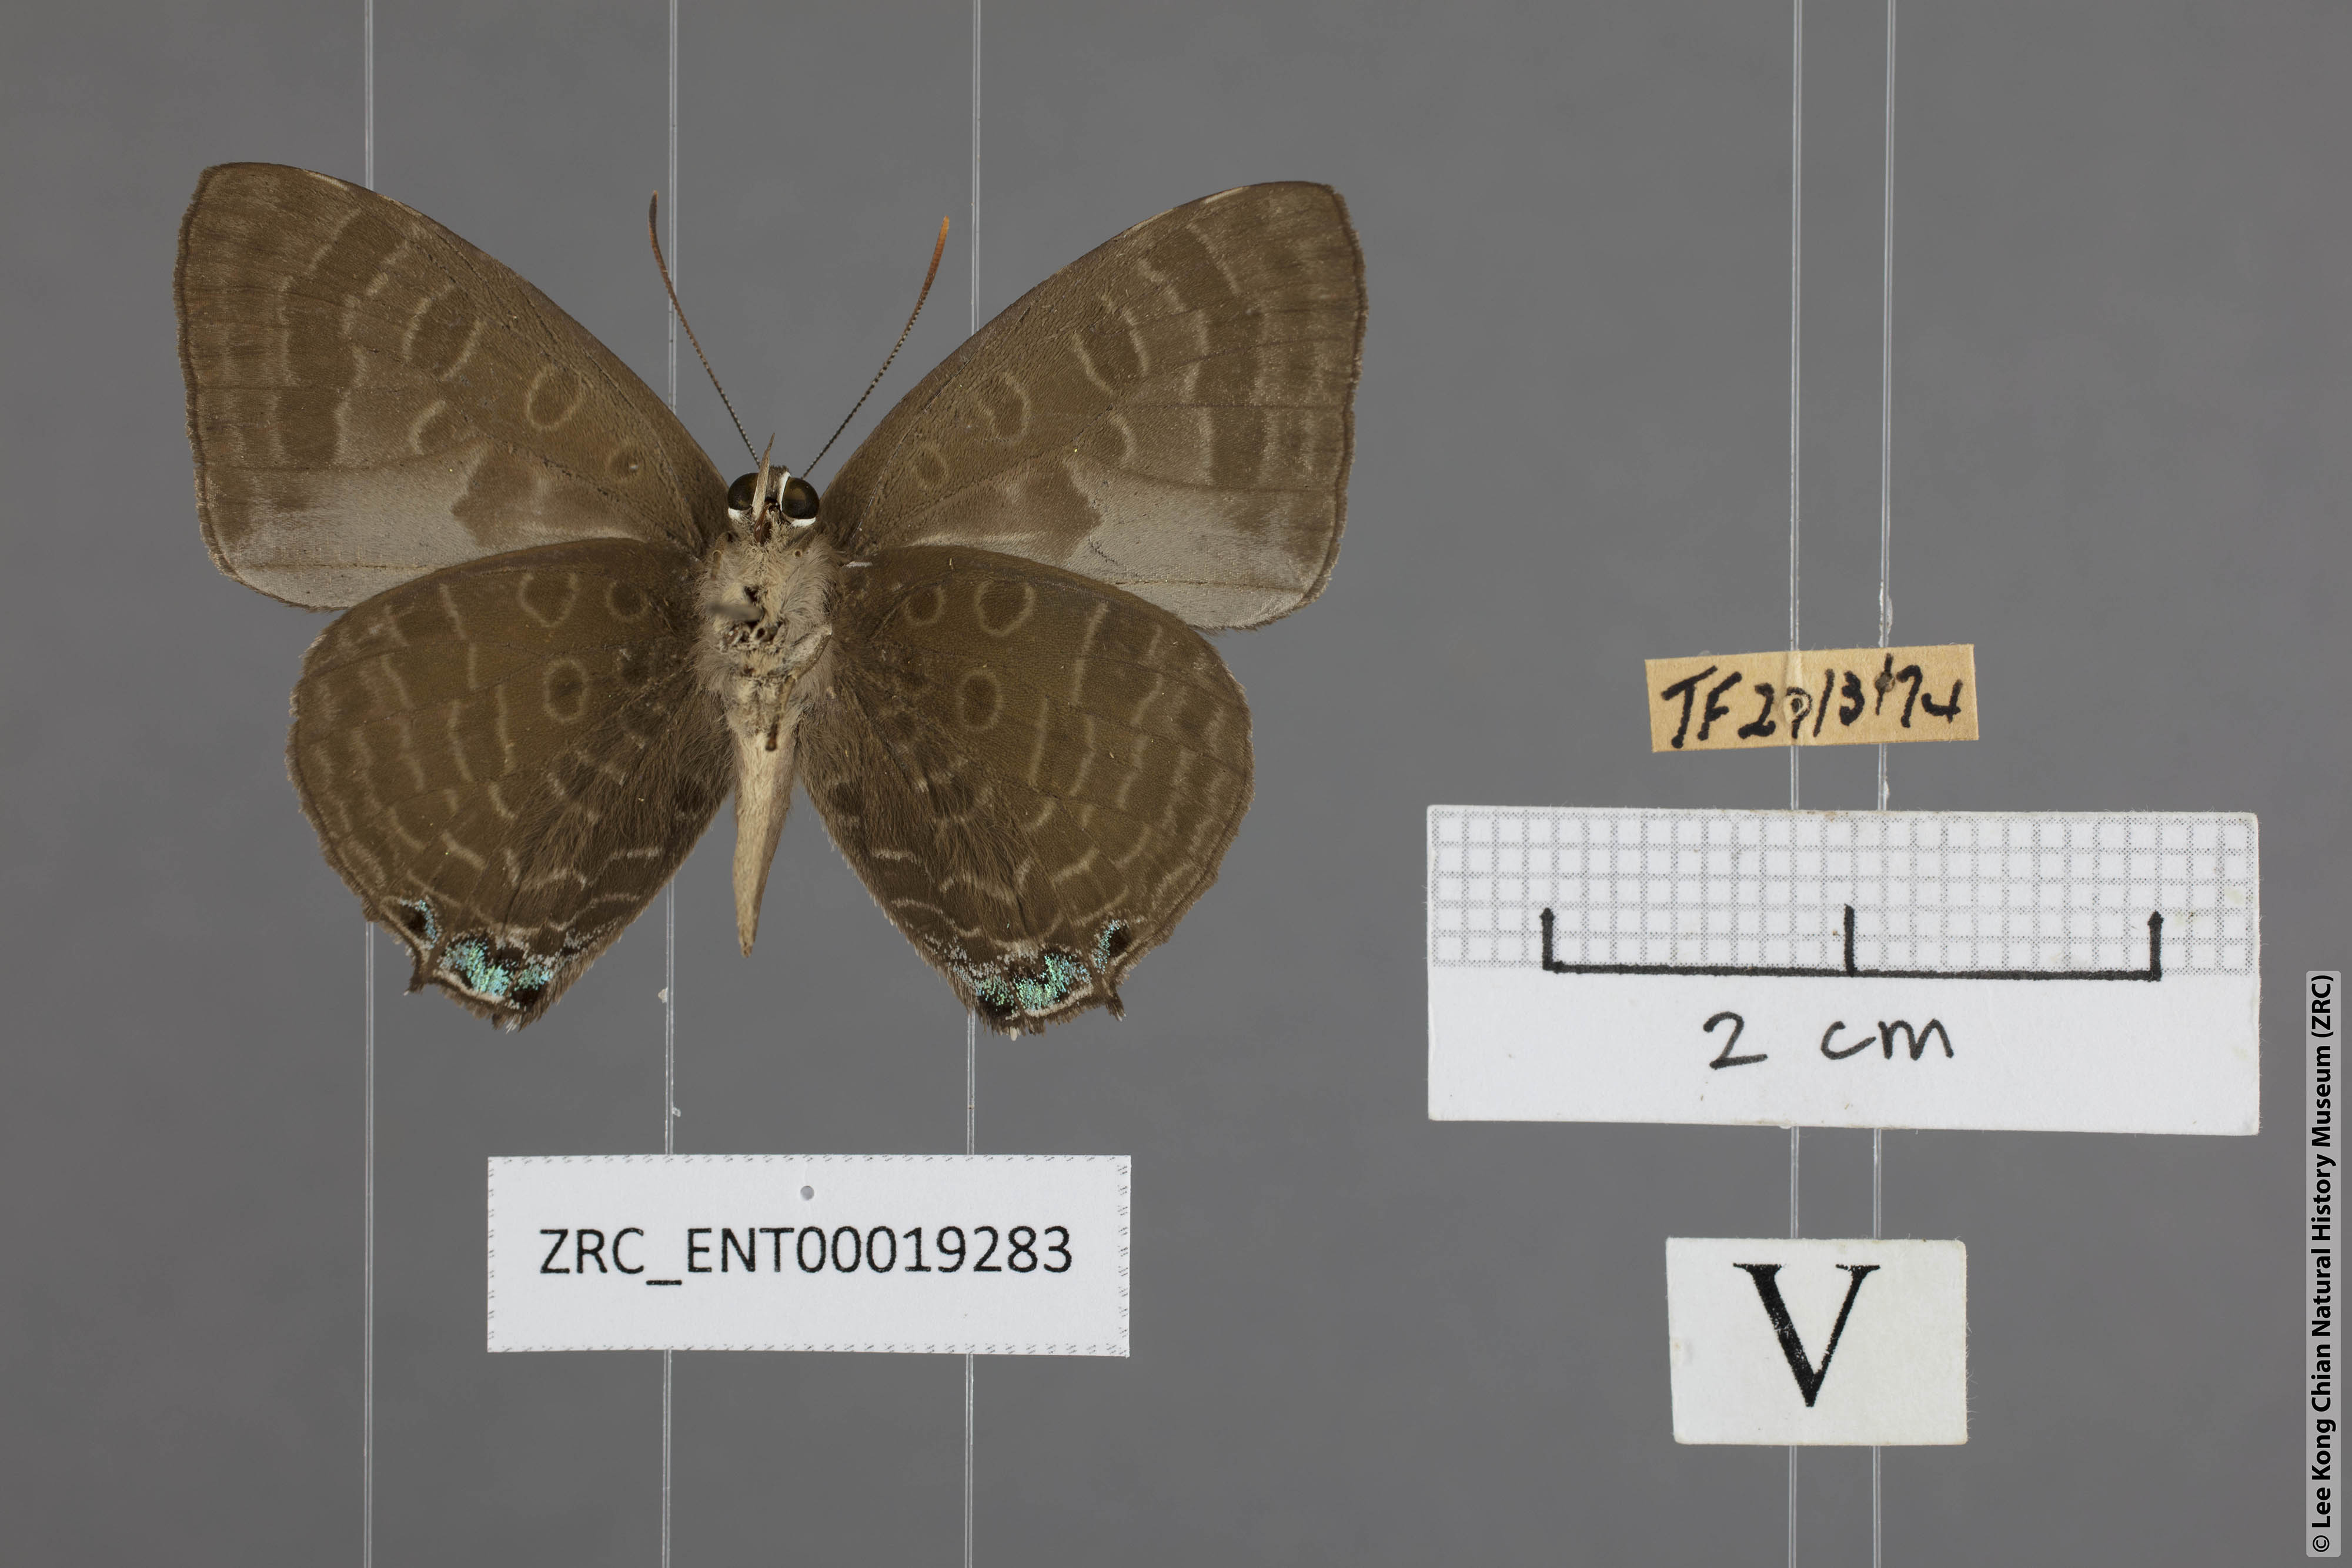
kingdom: Animalia
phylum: Arthropoda
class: Insecta
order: Lepidoptera
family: Lycaenidae
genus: Arhopala
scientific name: Arhopala aurea
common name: Long-celled oakblue
